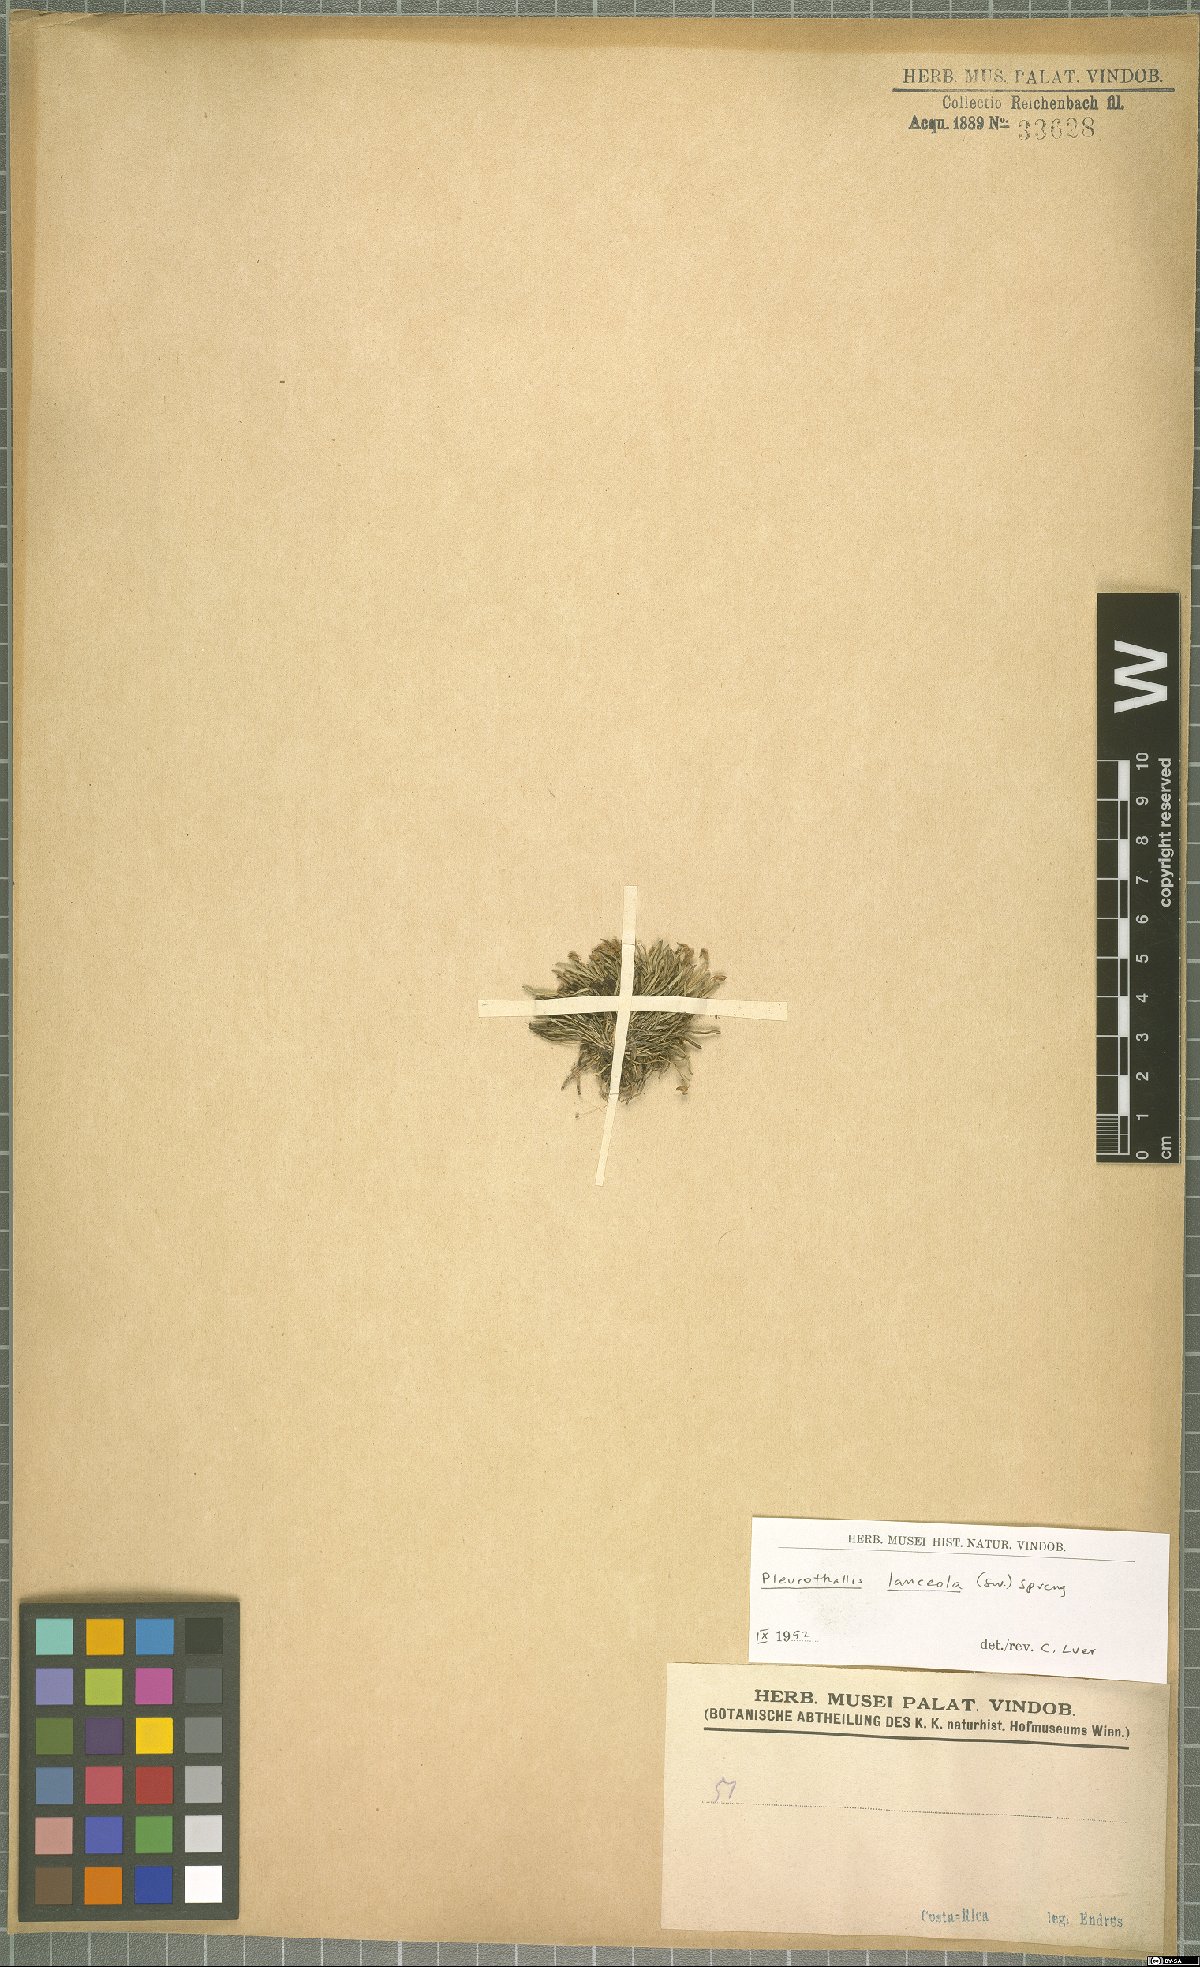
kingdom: Plantae
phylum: Tracheophyta
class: Liliopsida
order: Asparagales
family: Orchidaceae
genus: Specklinia
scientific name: Specklinia lanceola
